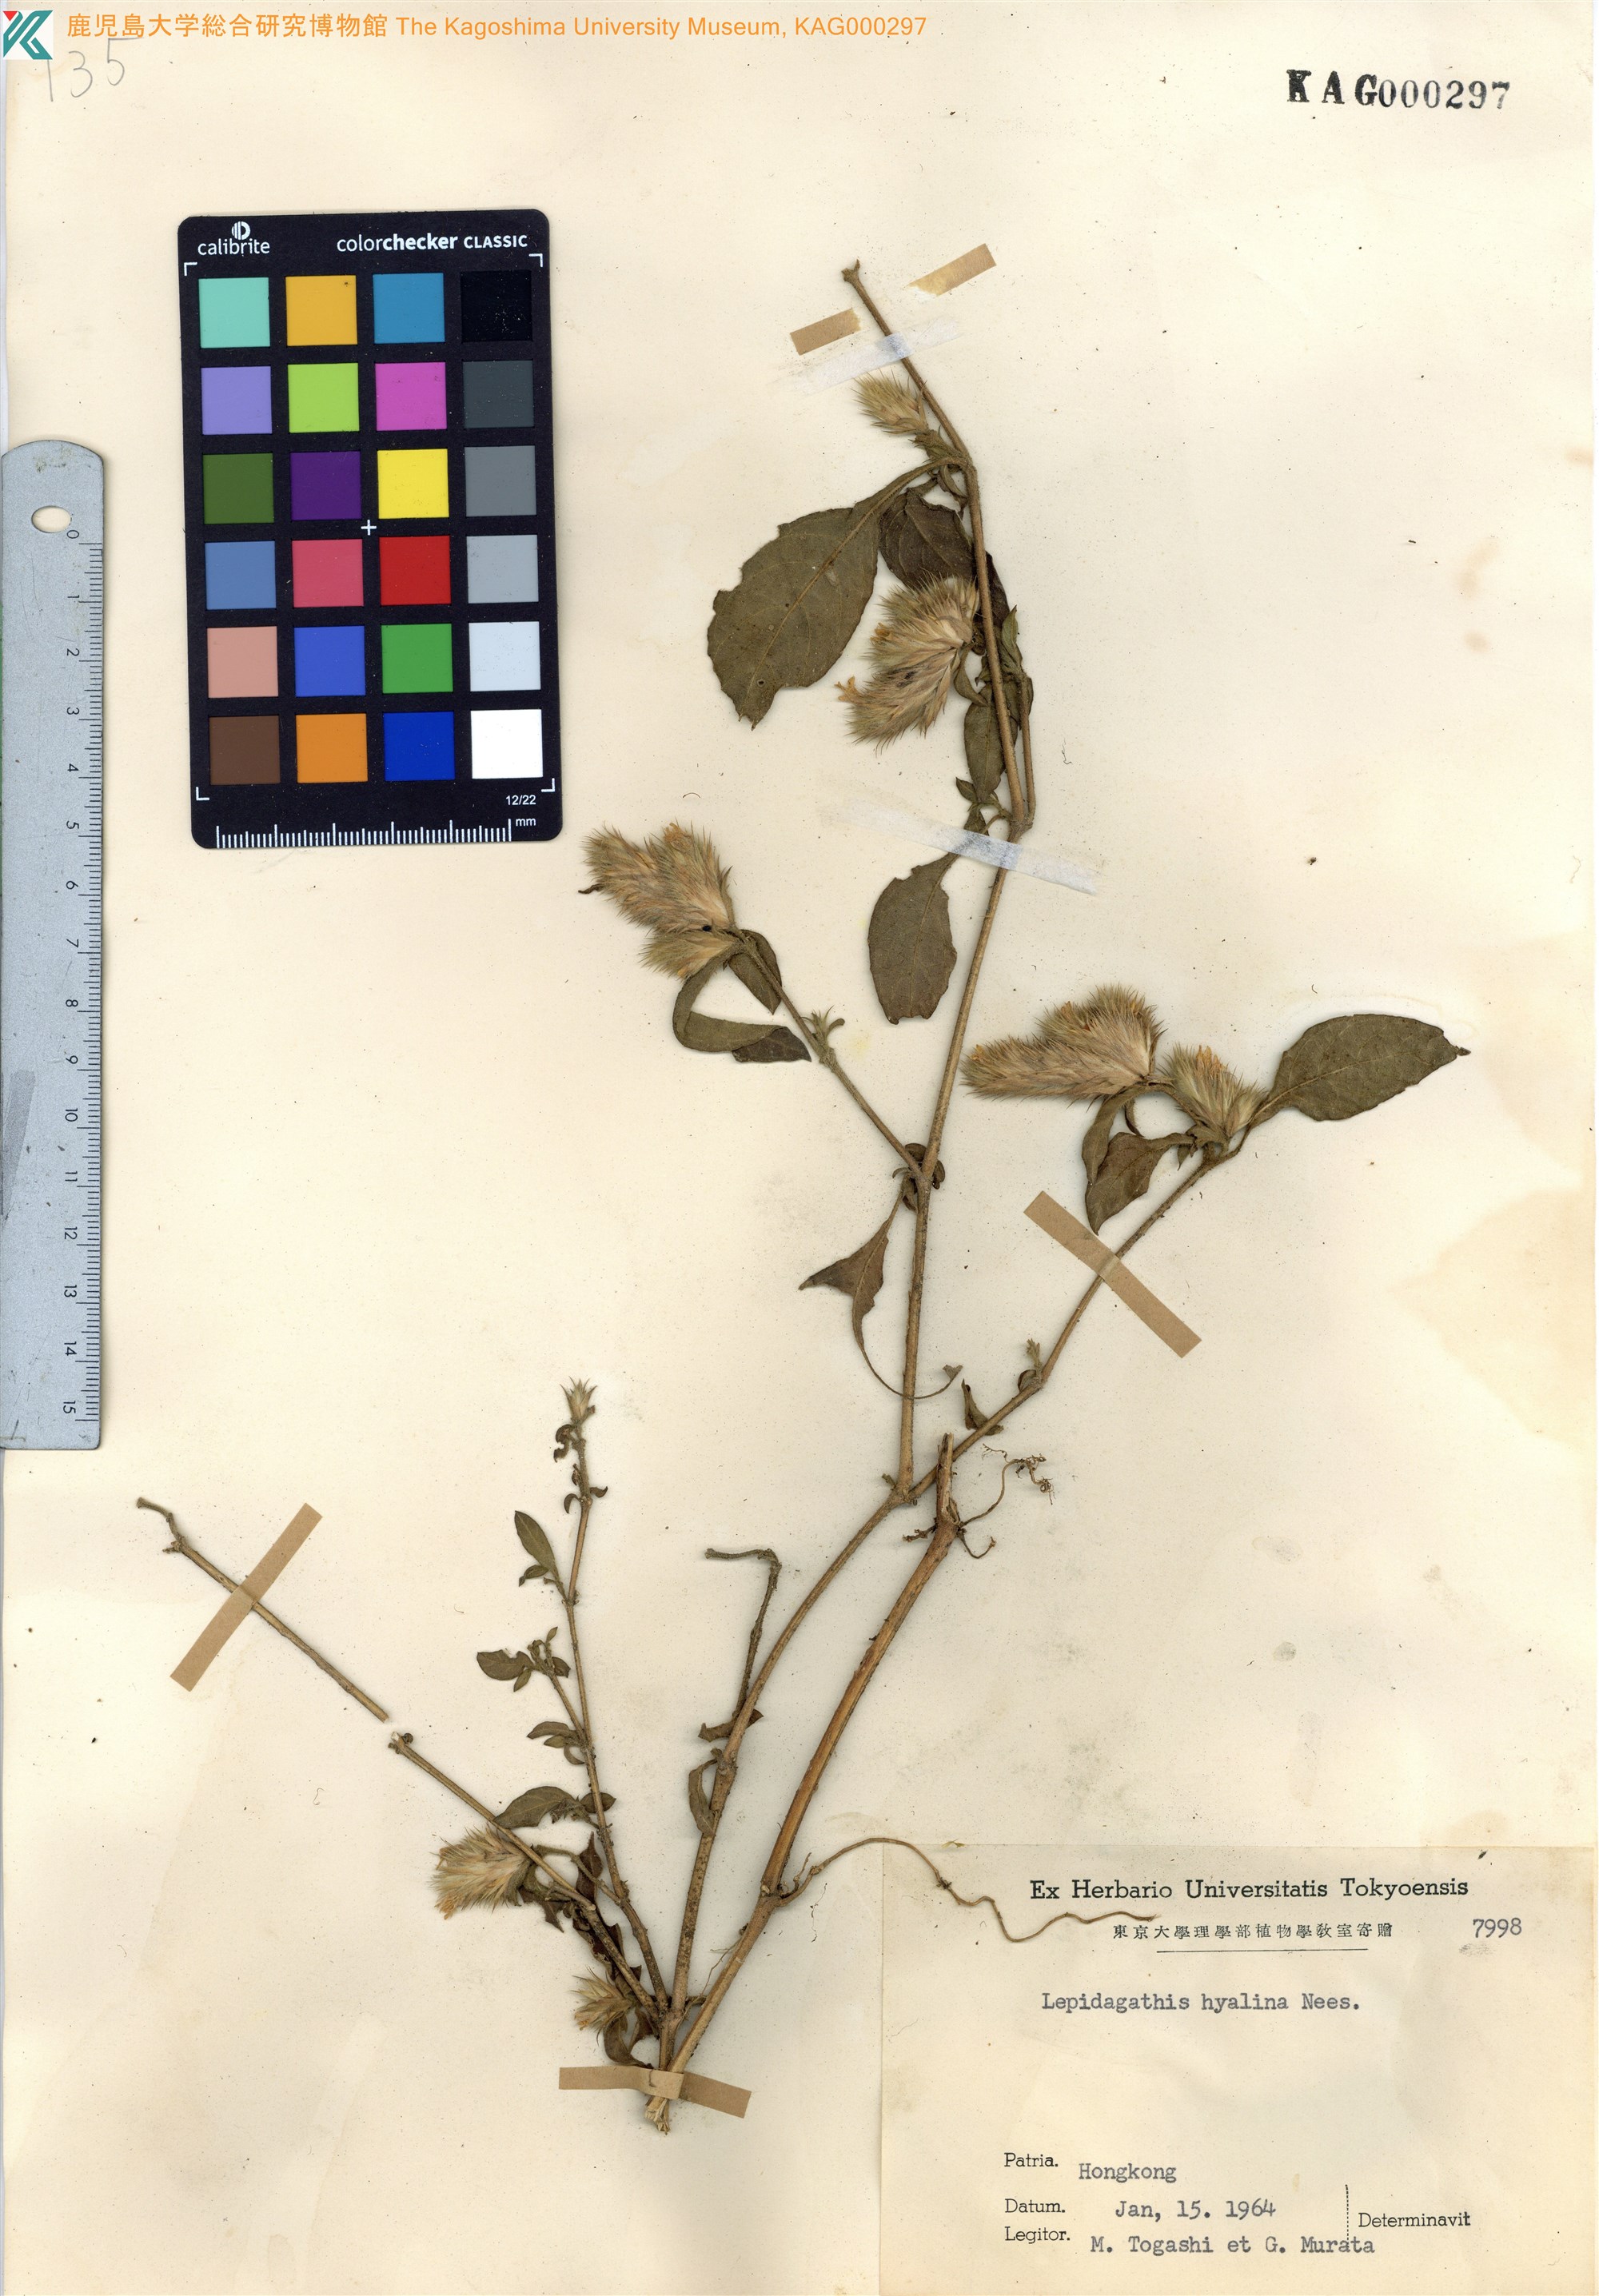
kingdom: Plantae
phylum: Tracheophyta
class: Magnoliopsida
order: Lamiales
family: Acanthaceae
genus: Lepidagathis
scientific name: Lepidagathis incurva
